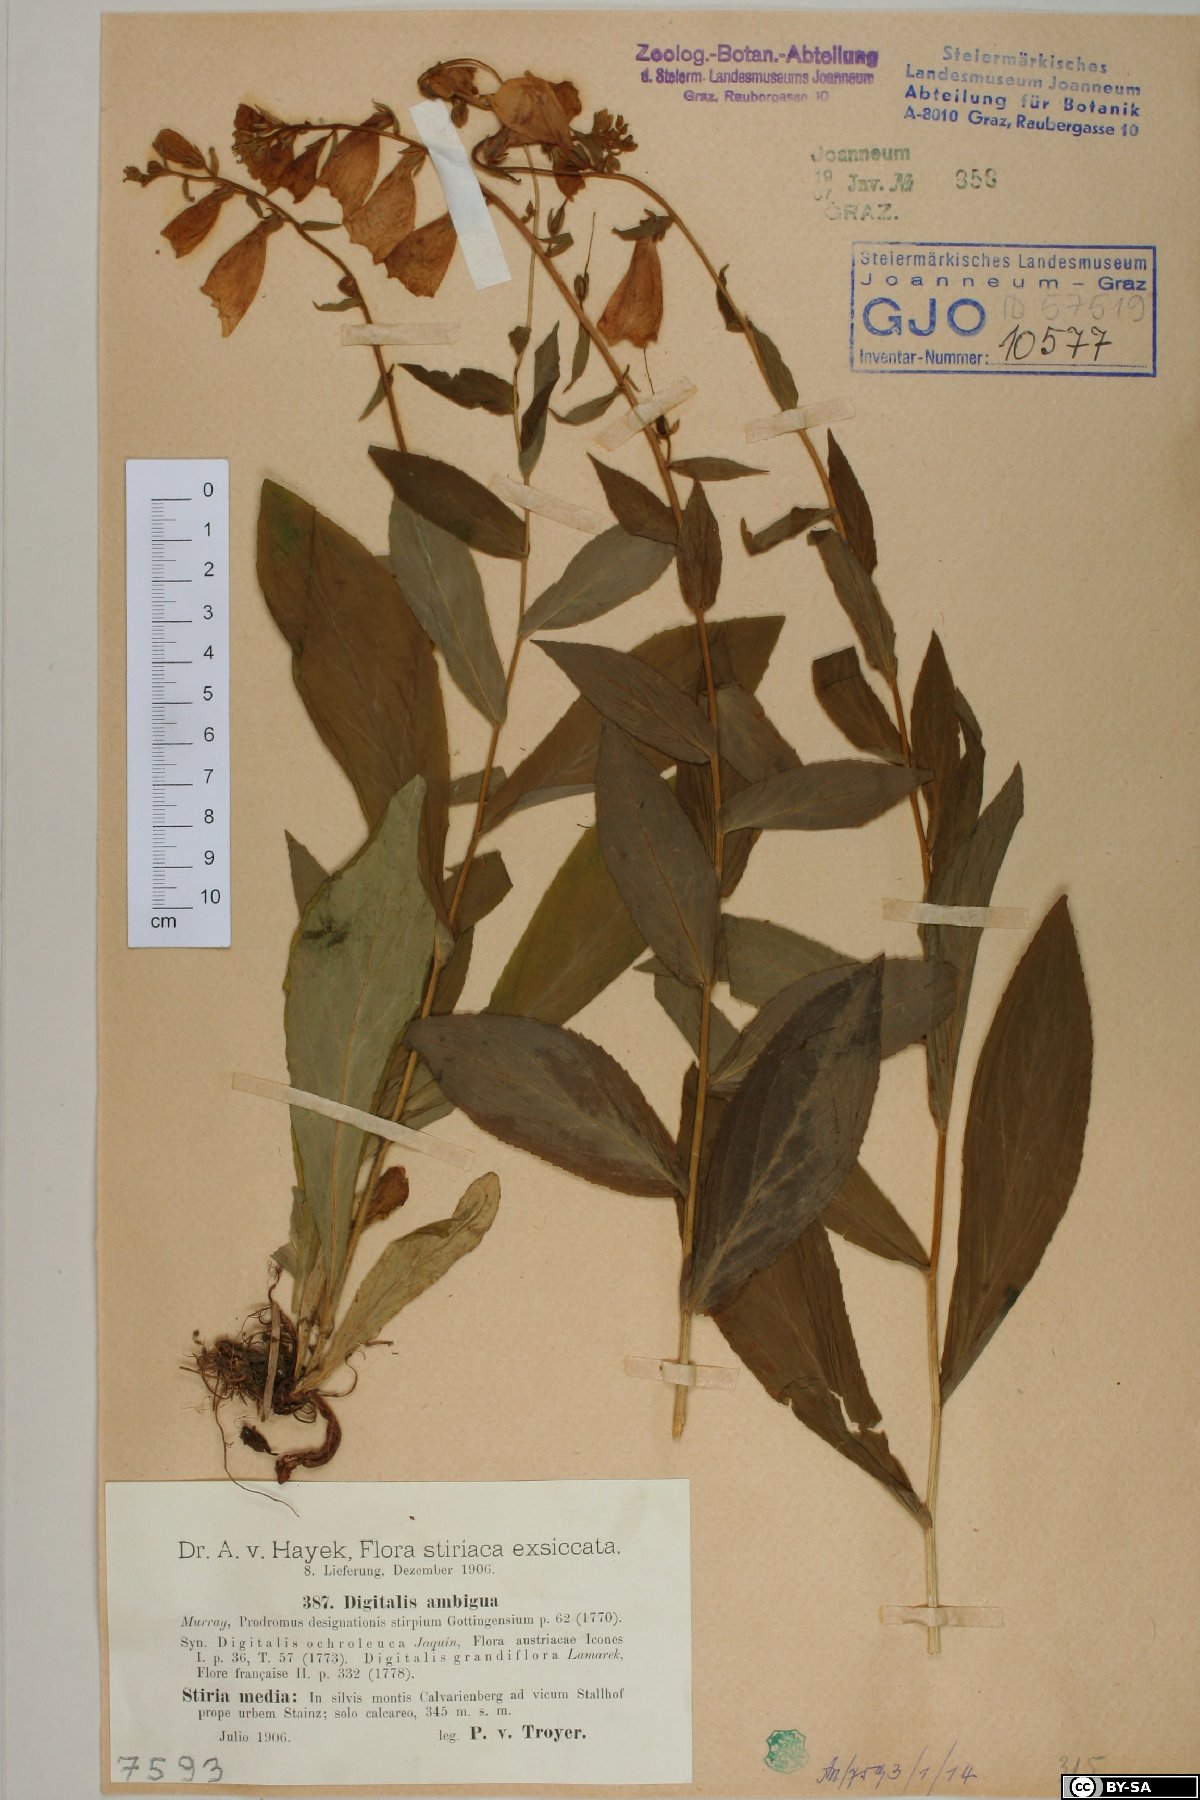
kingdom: Plantae
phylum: Tracheophyta
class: Magnoliopsida
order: Lamiales
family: Plantaginaceae
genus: Digitalis
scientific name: Digitalis grandiflora
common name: Yellow foxglove
